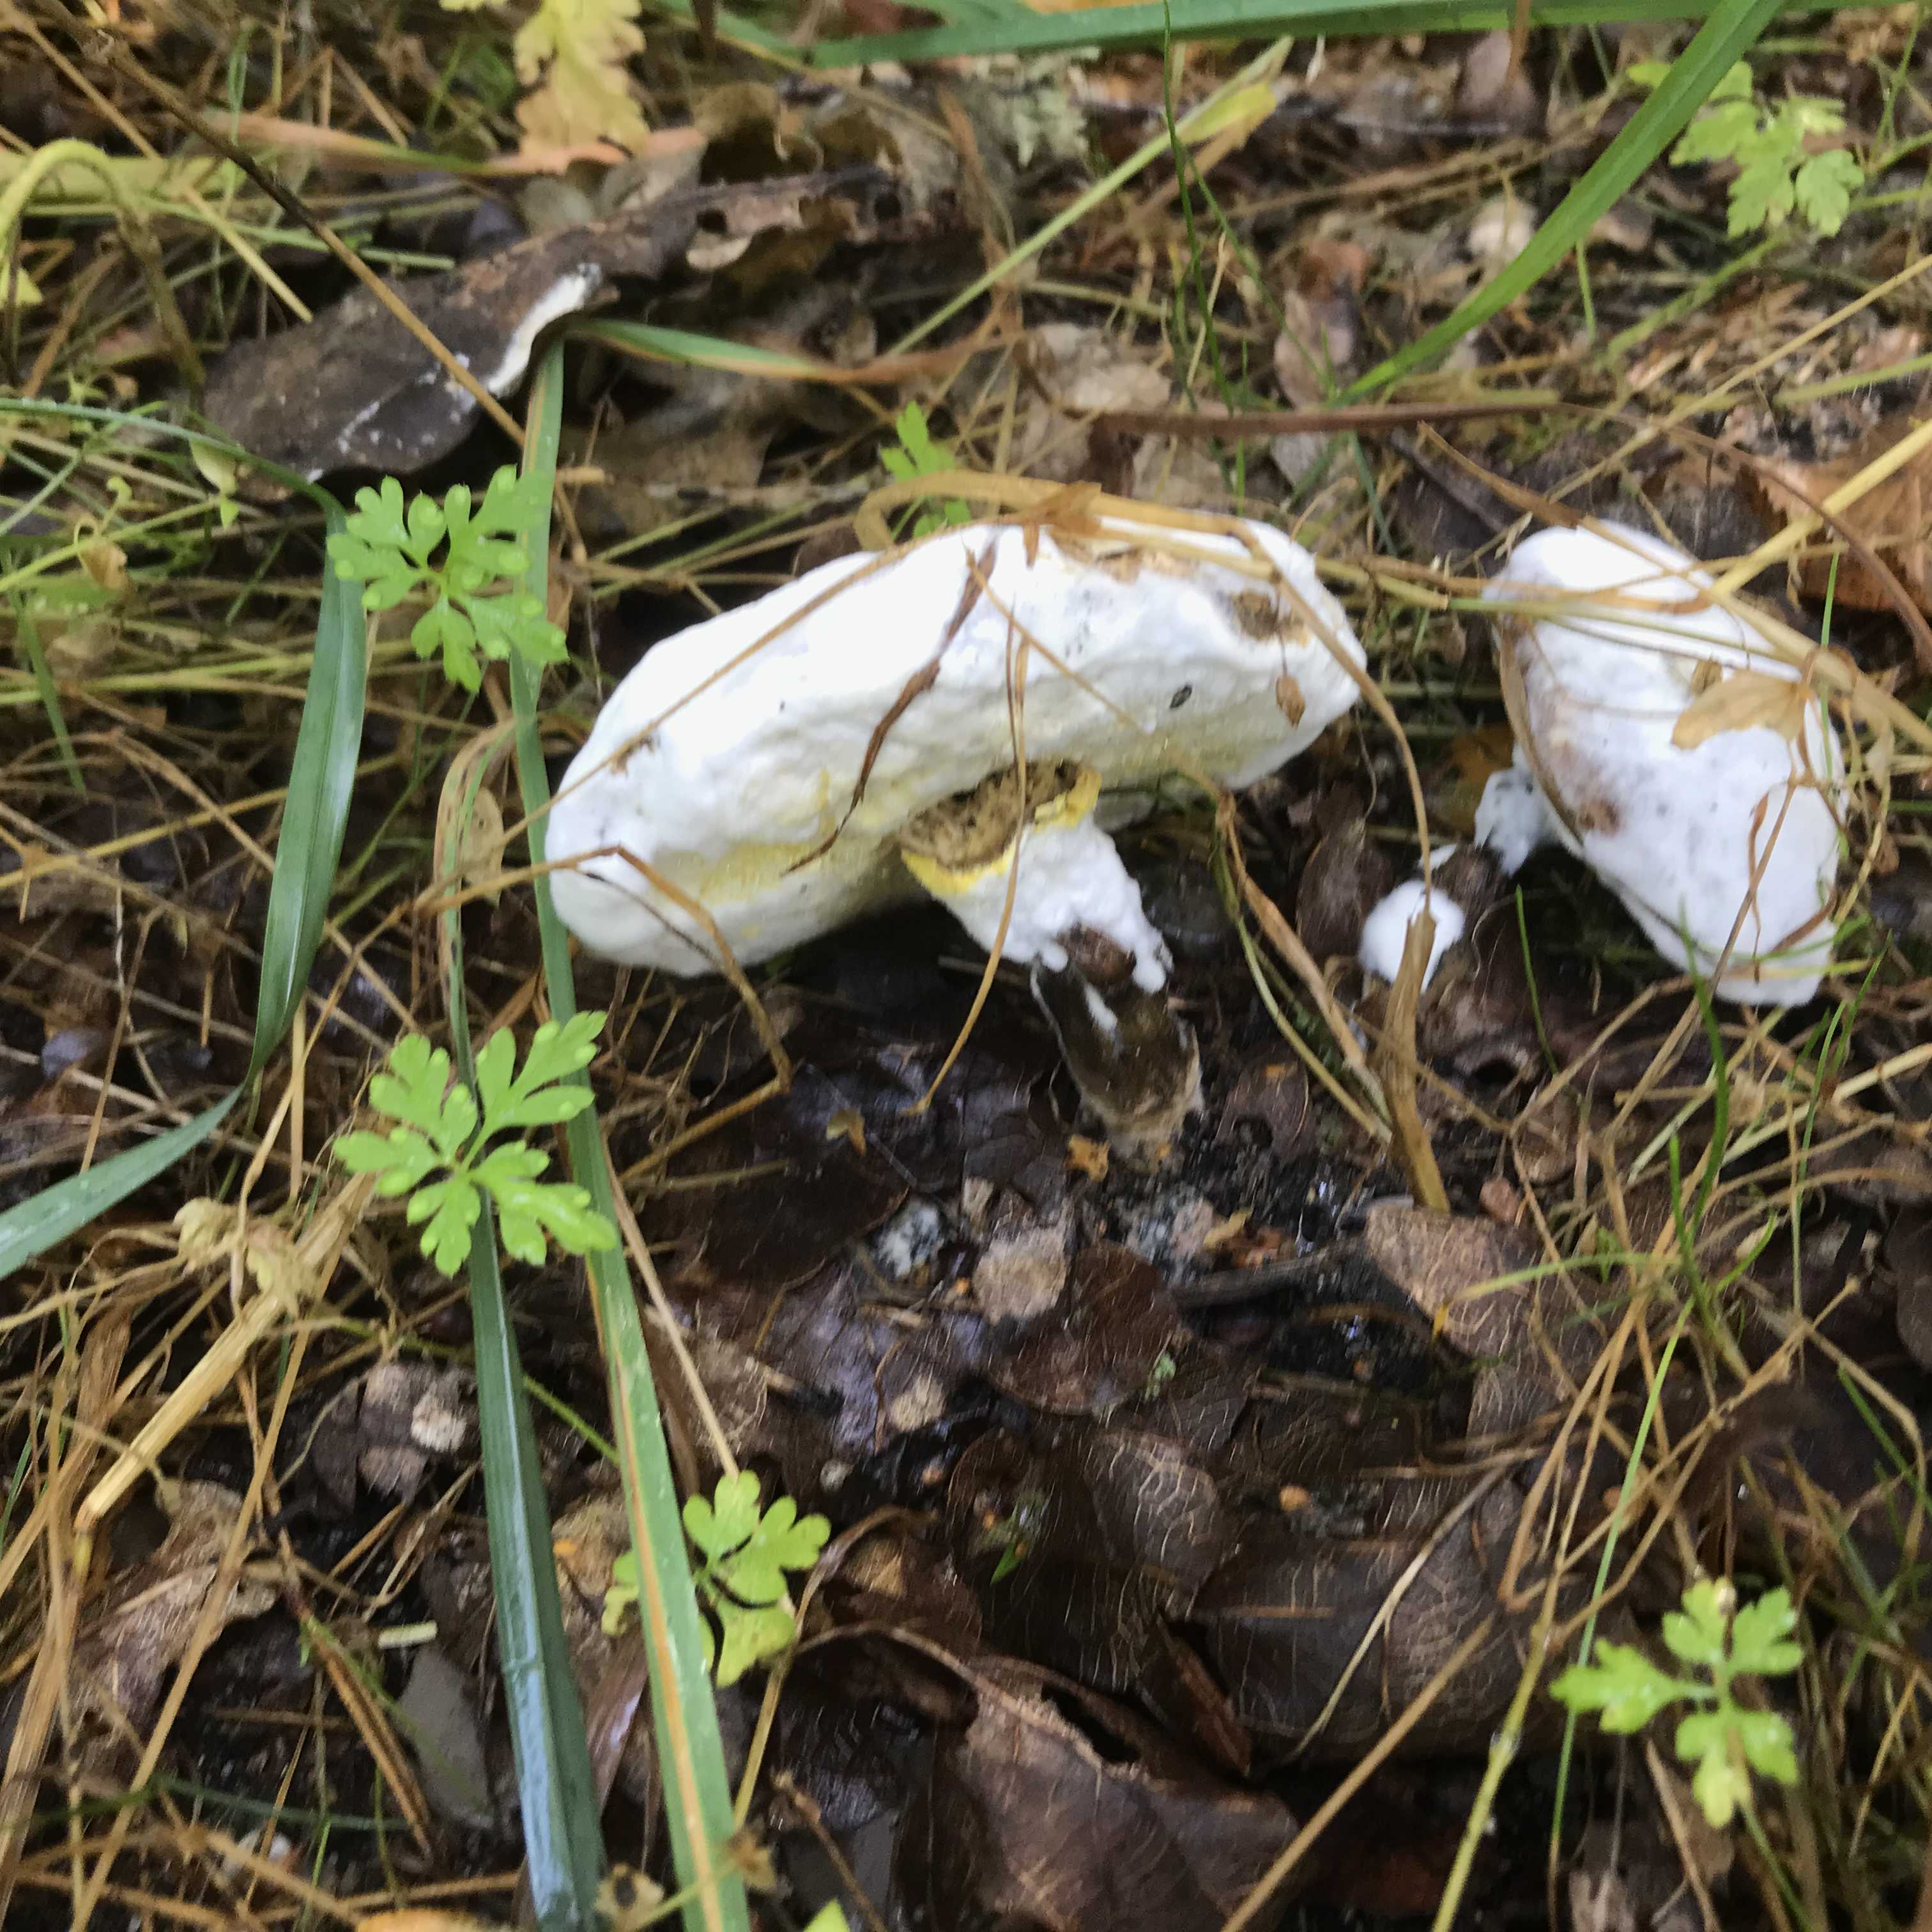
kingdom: Fungi
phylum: Ascomycota
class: Sordariomycetes
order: Hypocreales
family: Hypocreaceae
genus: Hypomyces
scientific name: Hypomyces microspermus
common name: dværgrørhat-snylteskorpe
